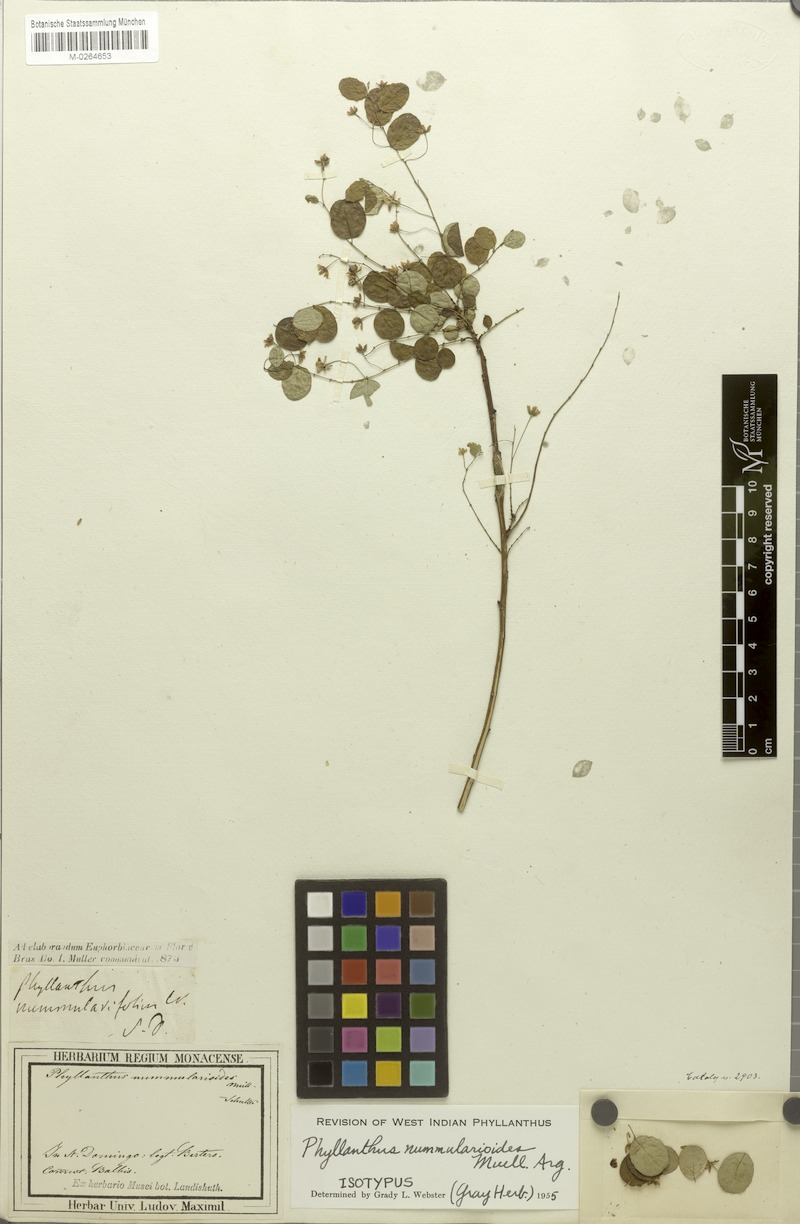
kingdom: Plantae
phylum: Tracheophyta
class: Magnoliopsida
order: Malpighiales
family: Phyllanthaceae
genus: Phyllanthus
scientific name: Phyllanthus nummularioides
